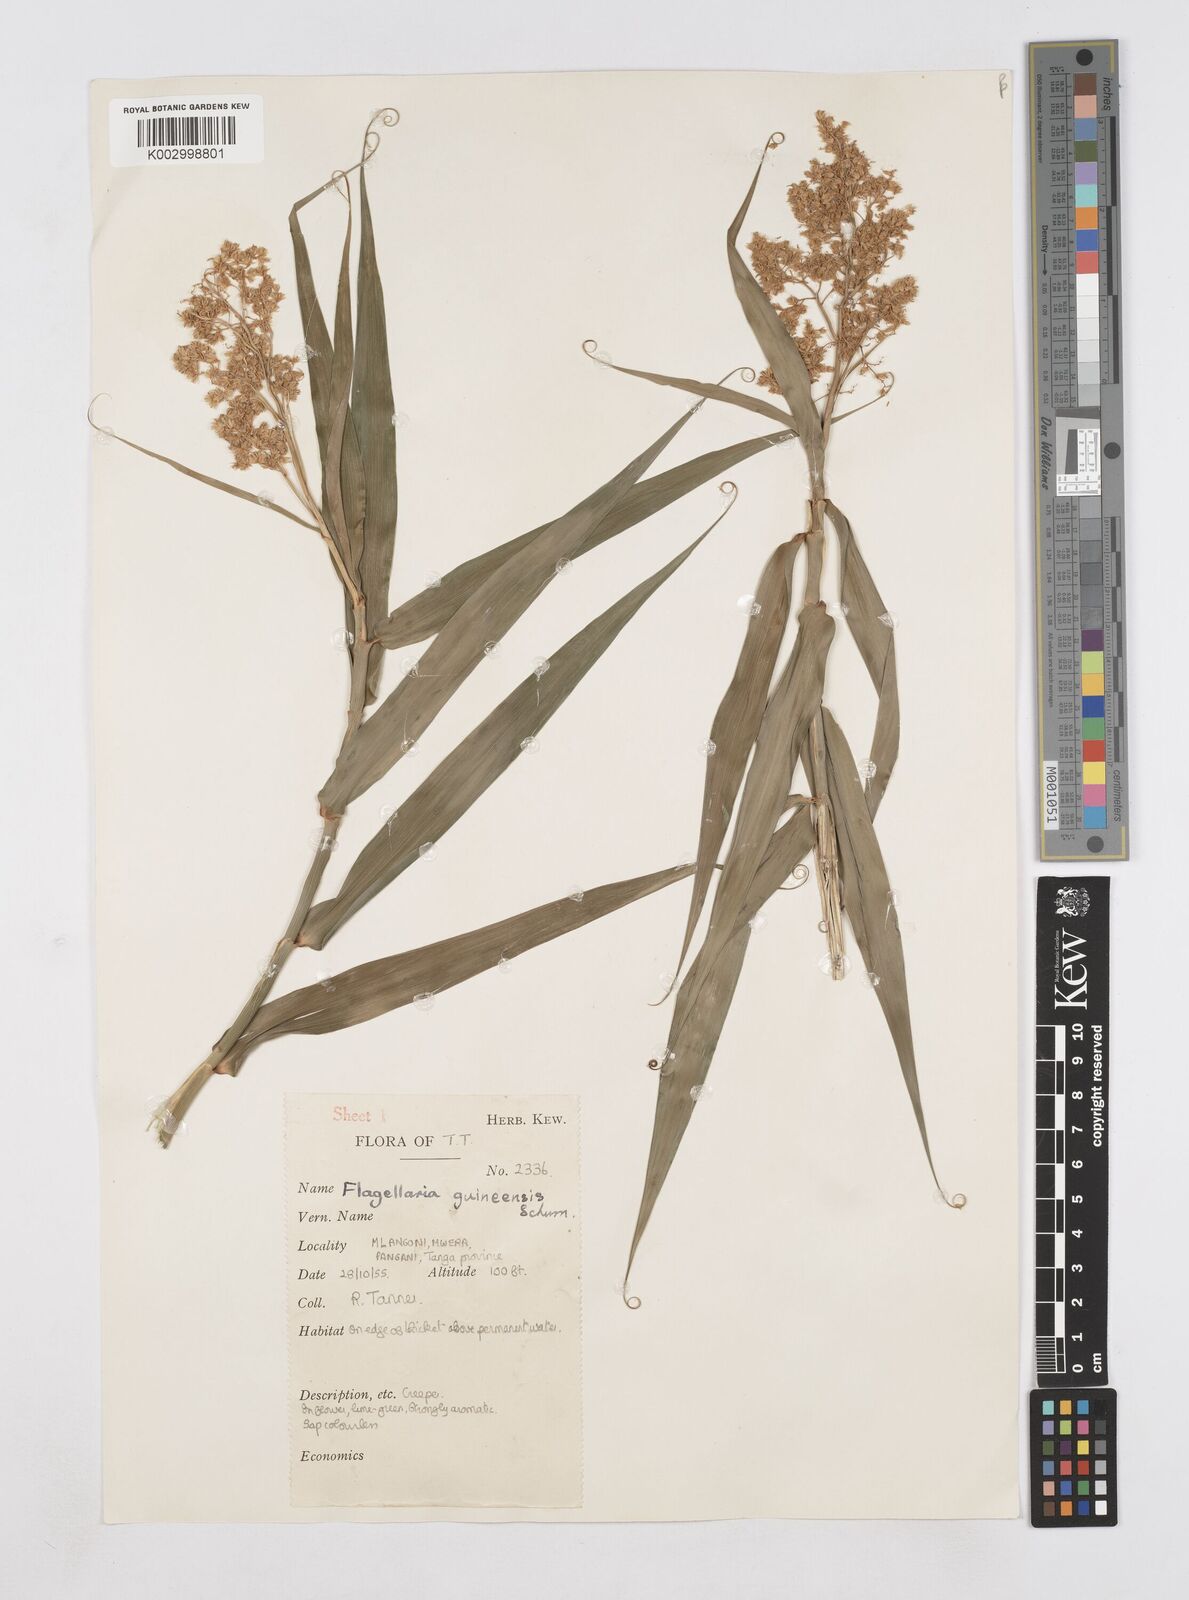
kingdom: Plantae
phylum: Tracheophyta
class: Liliopsida
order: Poales
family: Flagellariaceae
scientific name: Flagellariaceae
